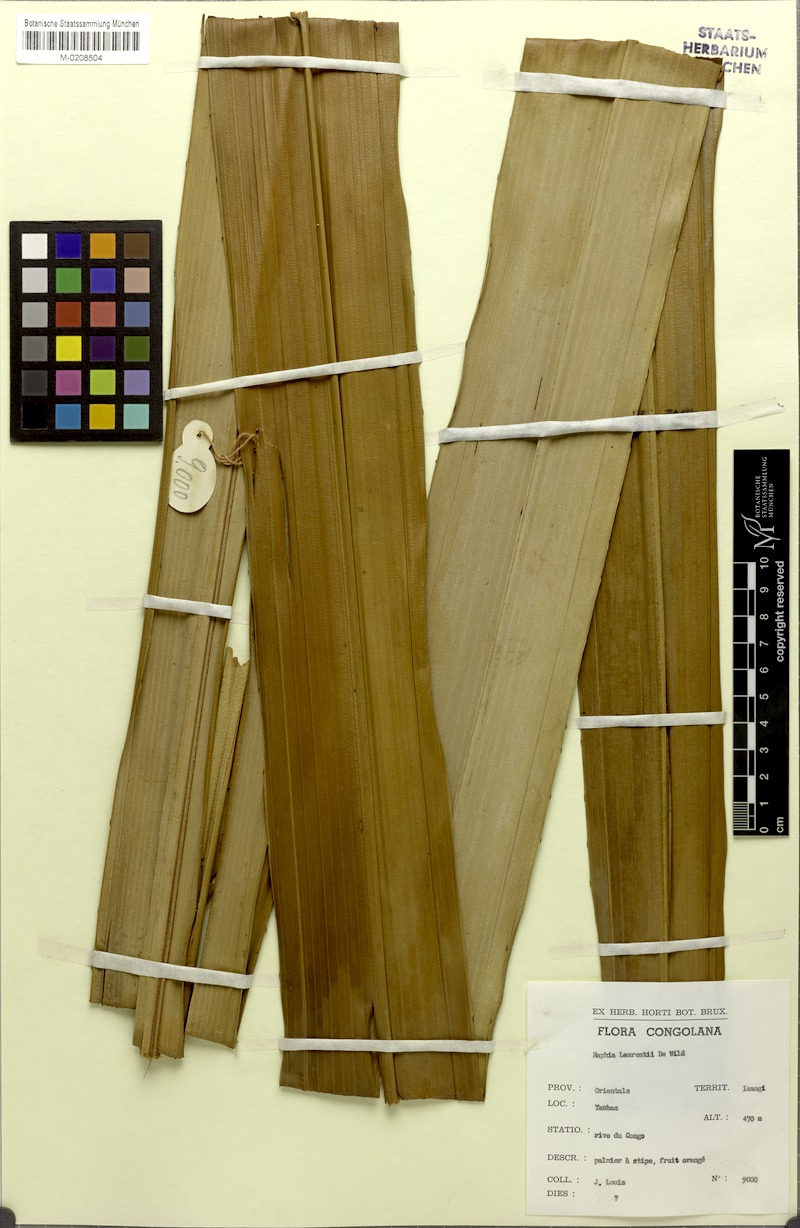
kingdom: Plantae
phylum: Tracheophyta
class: Liliopsida
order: Arecales
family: Arecaceae
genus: Raphia
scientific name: Raphia laurentii
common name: Raphia palm
